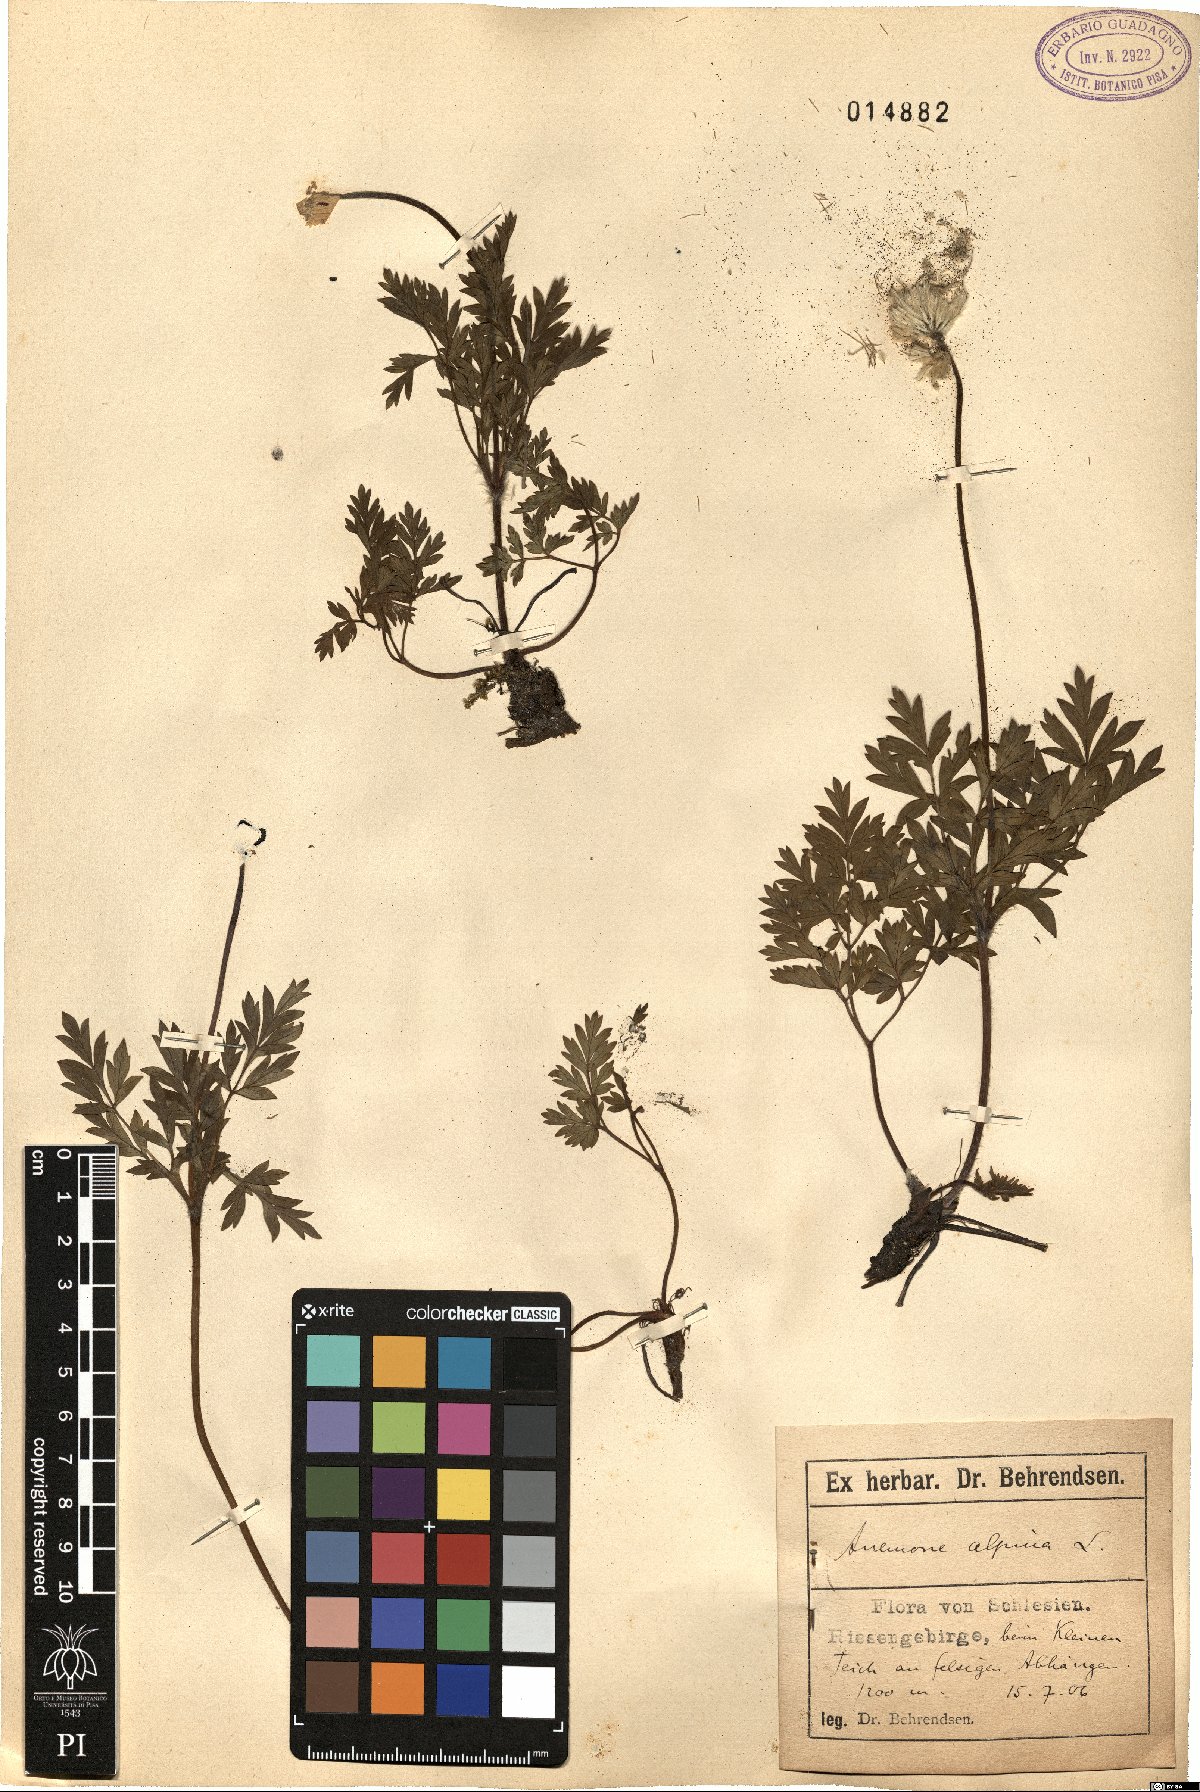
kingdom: Plantae
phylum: Tracheophyta
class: Magnoliopsida
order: Ranunculales
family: Ranunculaceae
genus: Pulsatilla
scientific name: Pulsatilla alpina
